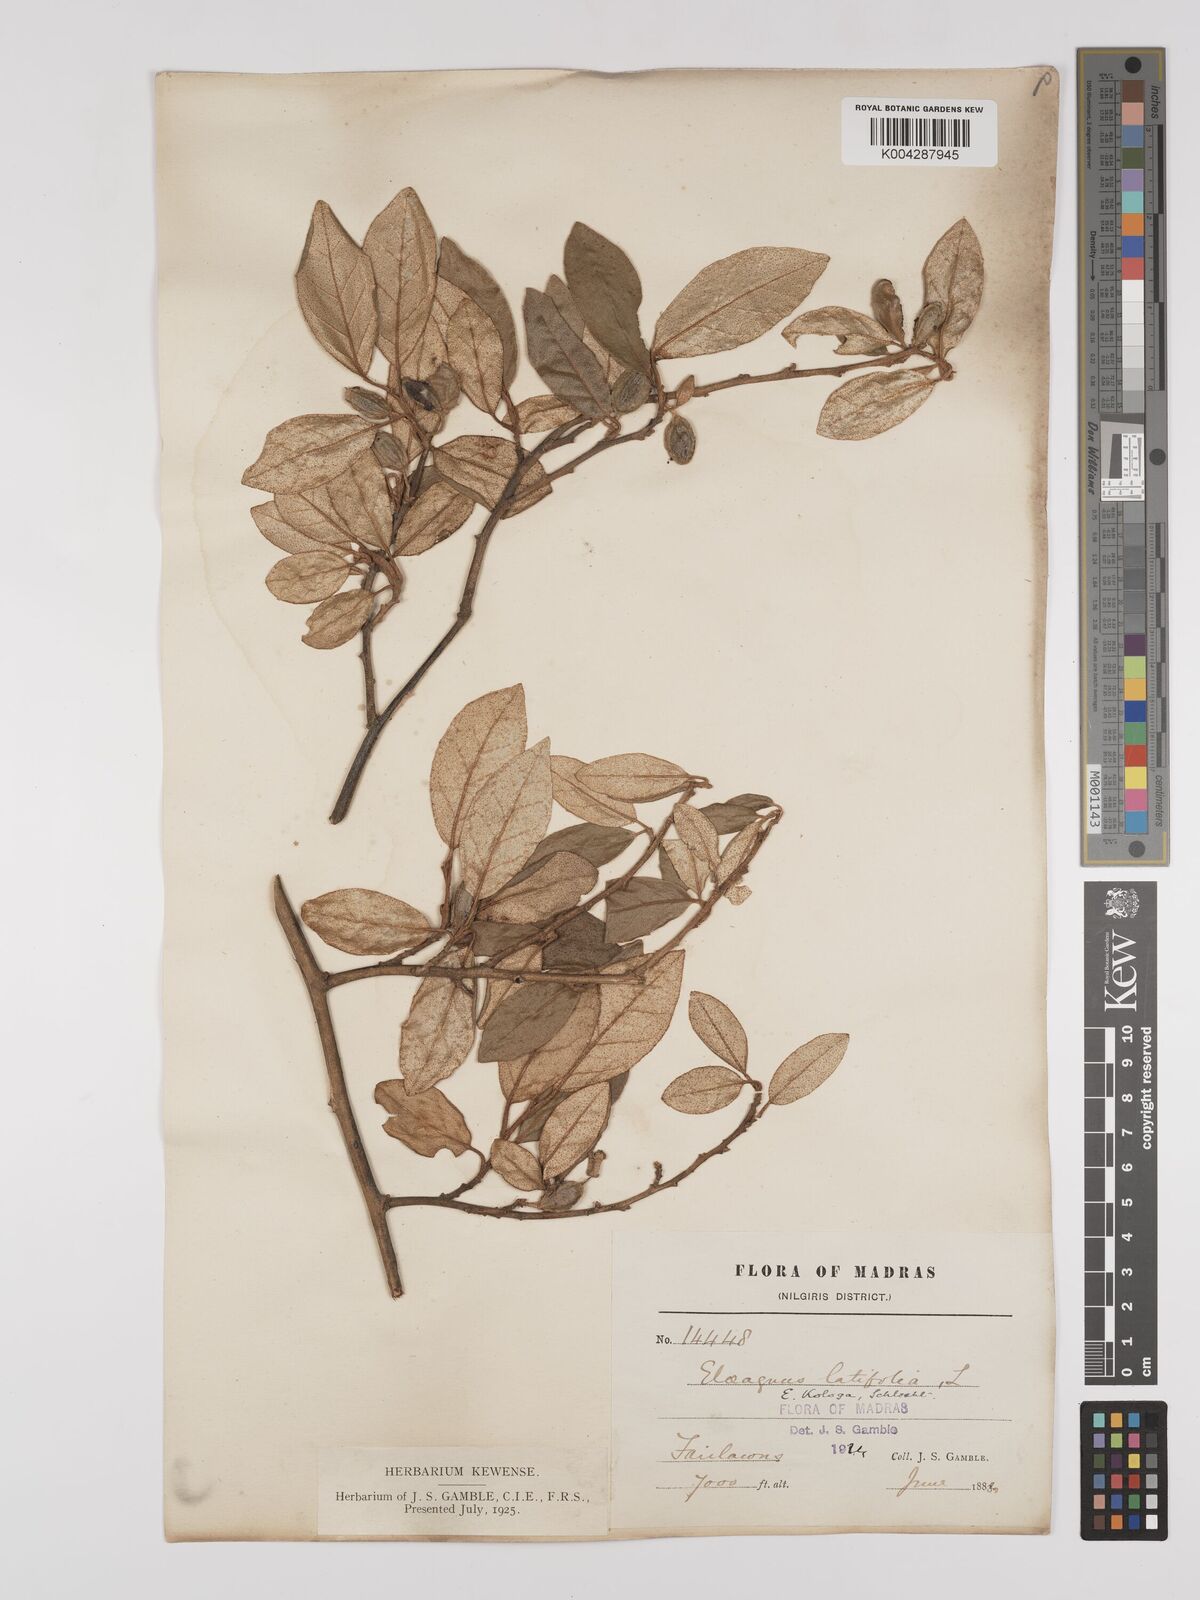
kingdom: Plantae
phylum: Tracheophyta
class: Magnoliopsida
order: Rosales
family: Elaeagnaceae
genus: Elaeagnus
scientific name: Elaeagnus latifolia
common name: Oleaster
